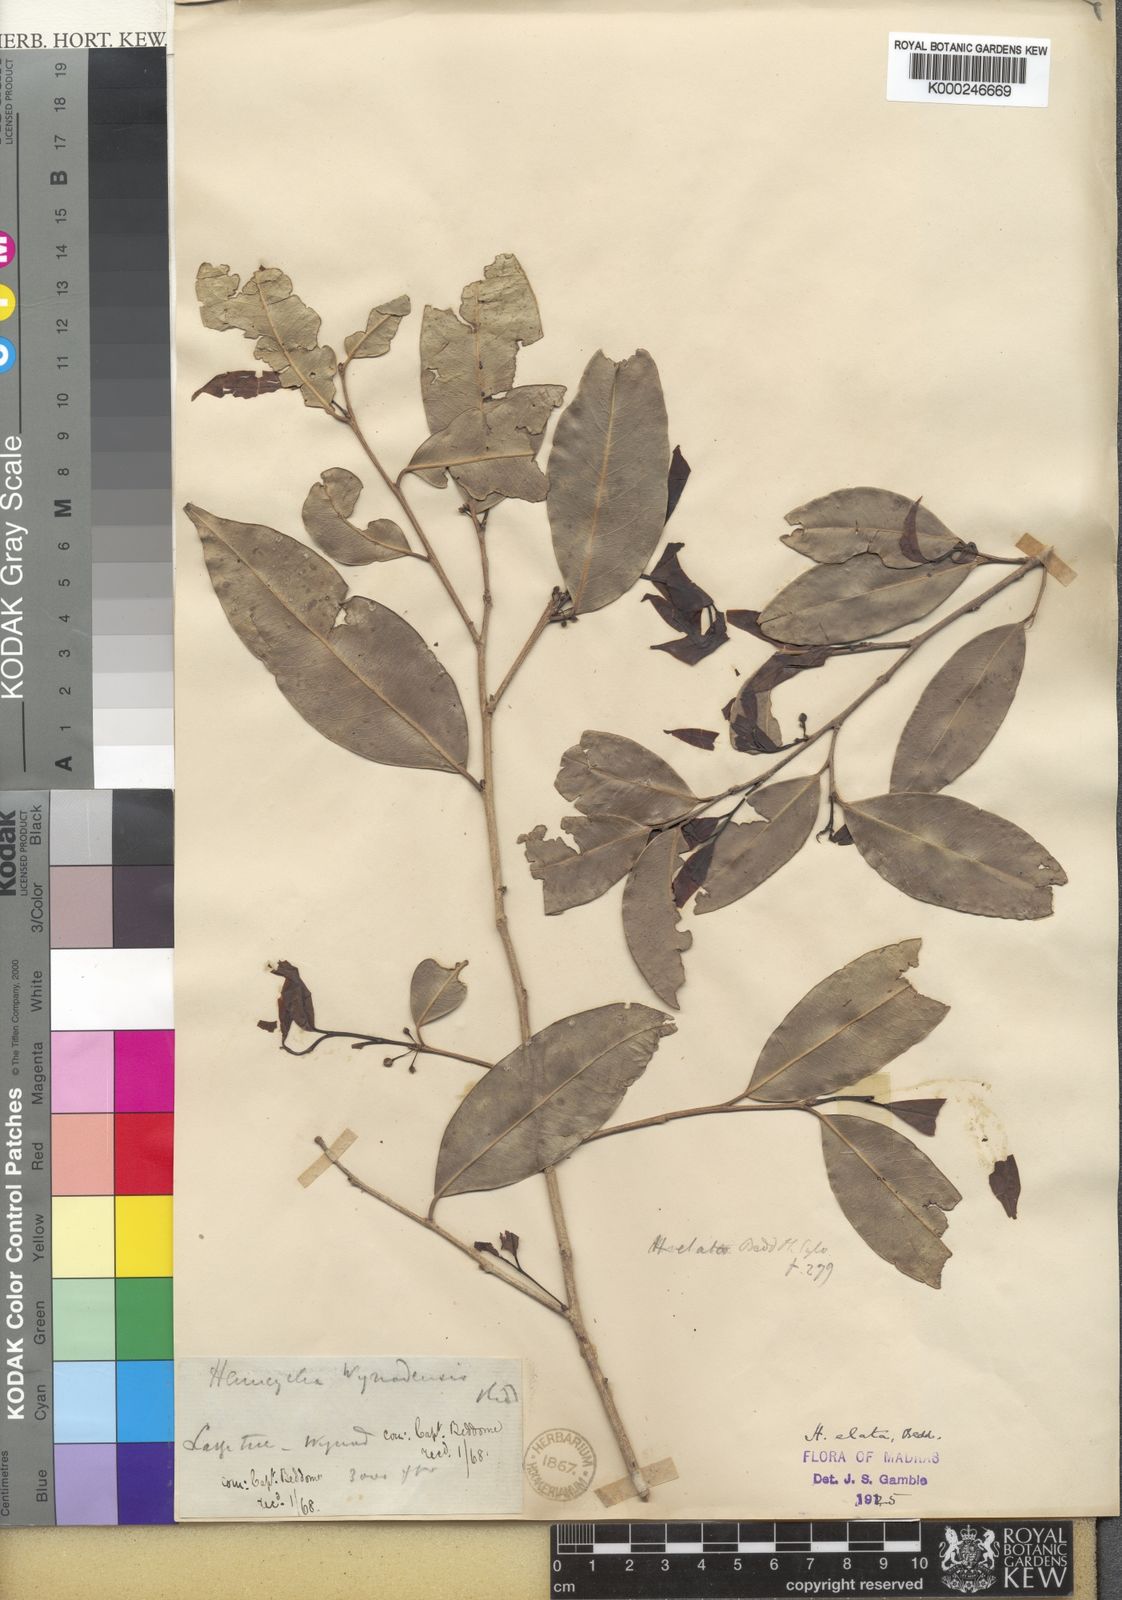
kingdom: Plantae
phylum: Tracheophyta
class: Magnoliopsida
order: Malpighiales
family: Putranjivaceae
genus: Drypetes
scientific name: Drypetes venusta
